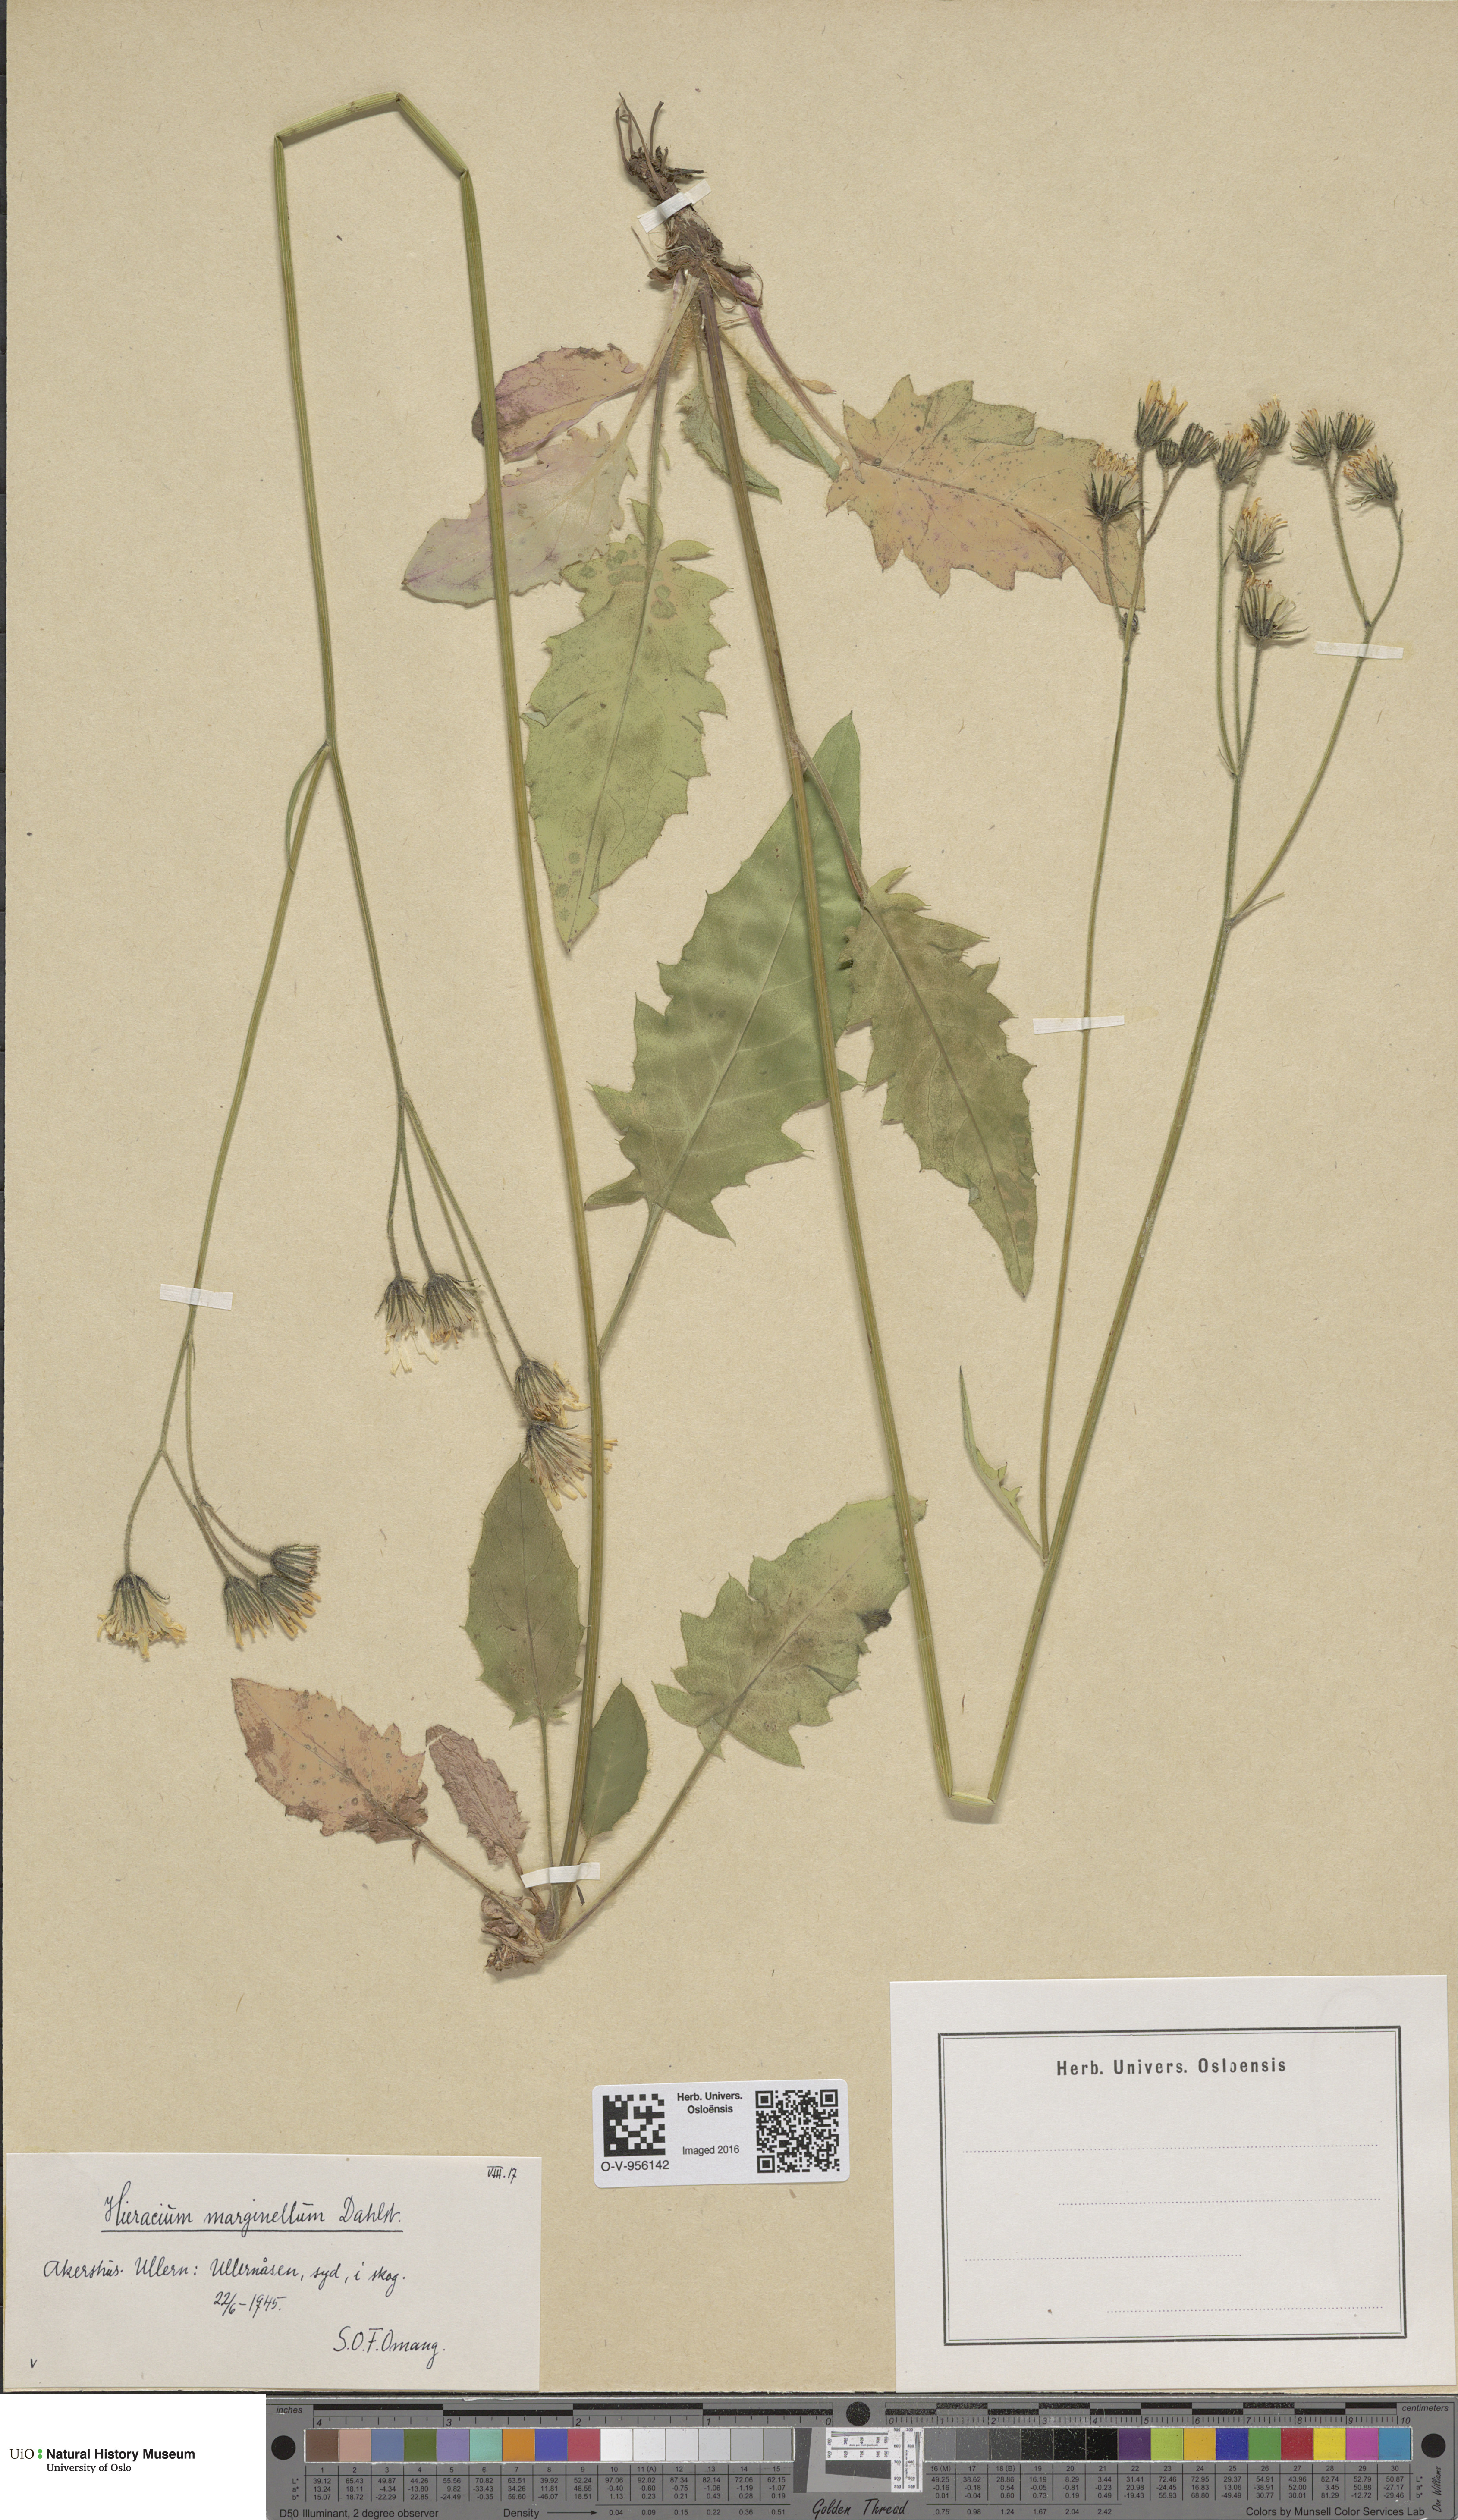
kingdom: Plantae
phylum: Tracheophyta
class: Magnoliopsida
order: Asterales
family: Asteraceae
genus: Hieracium
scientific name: Hieracium marginellum
